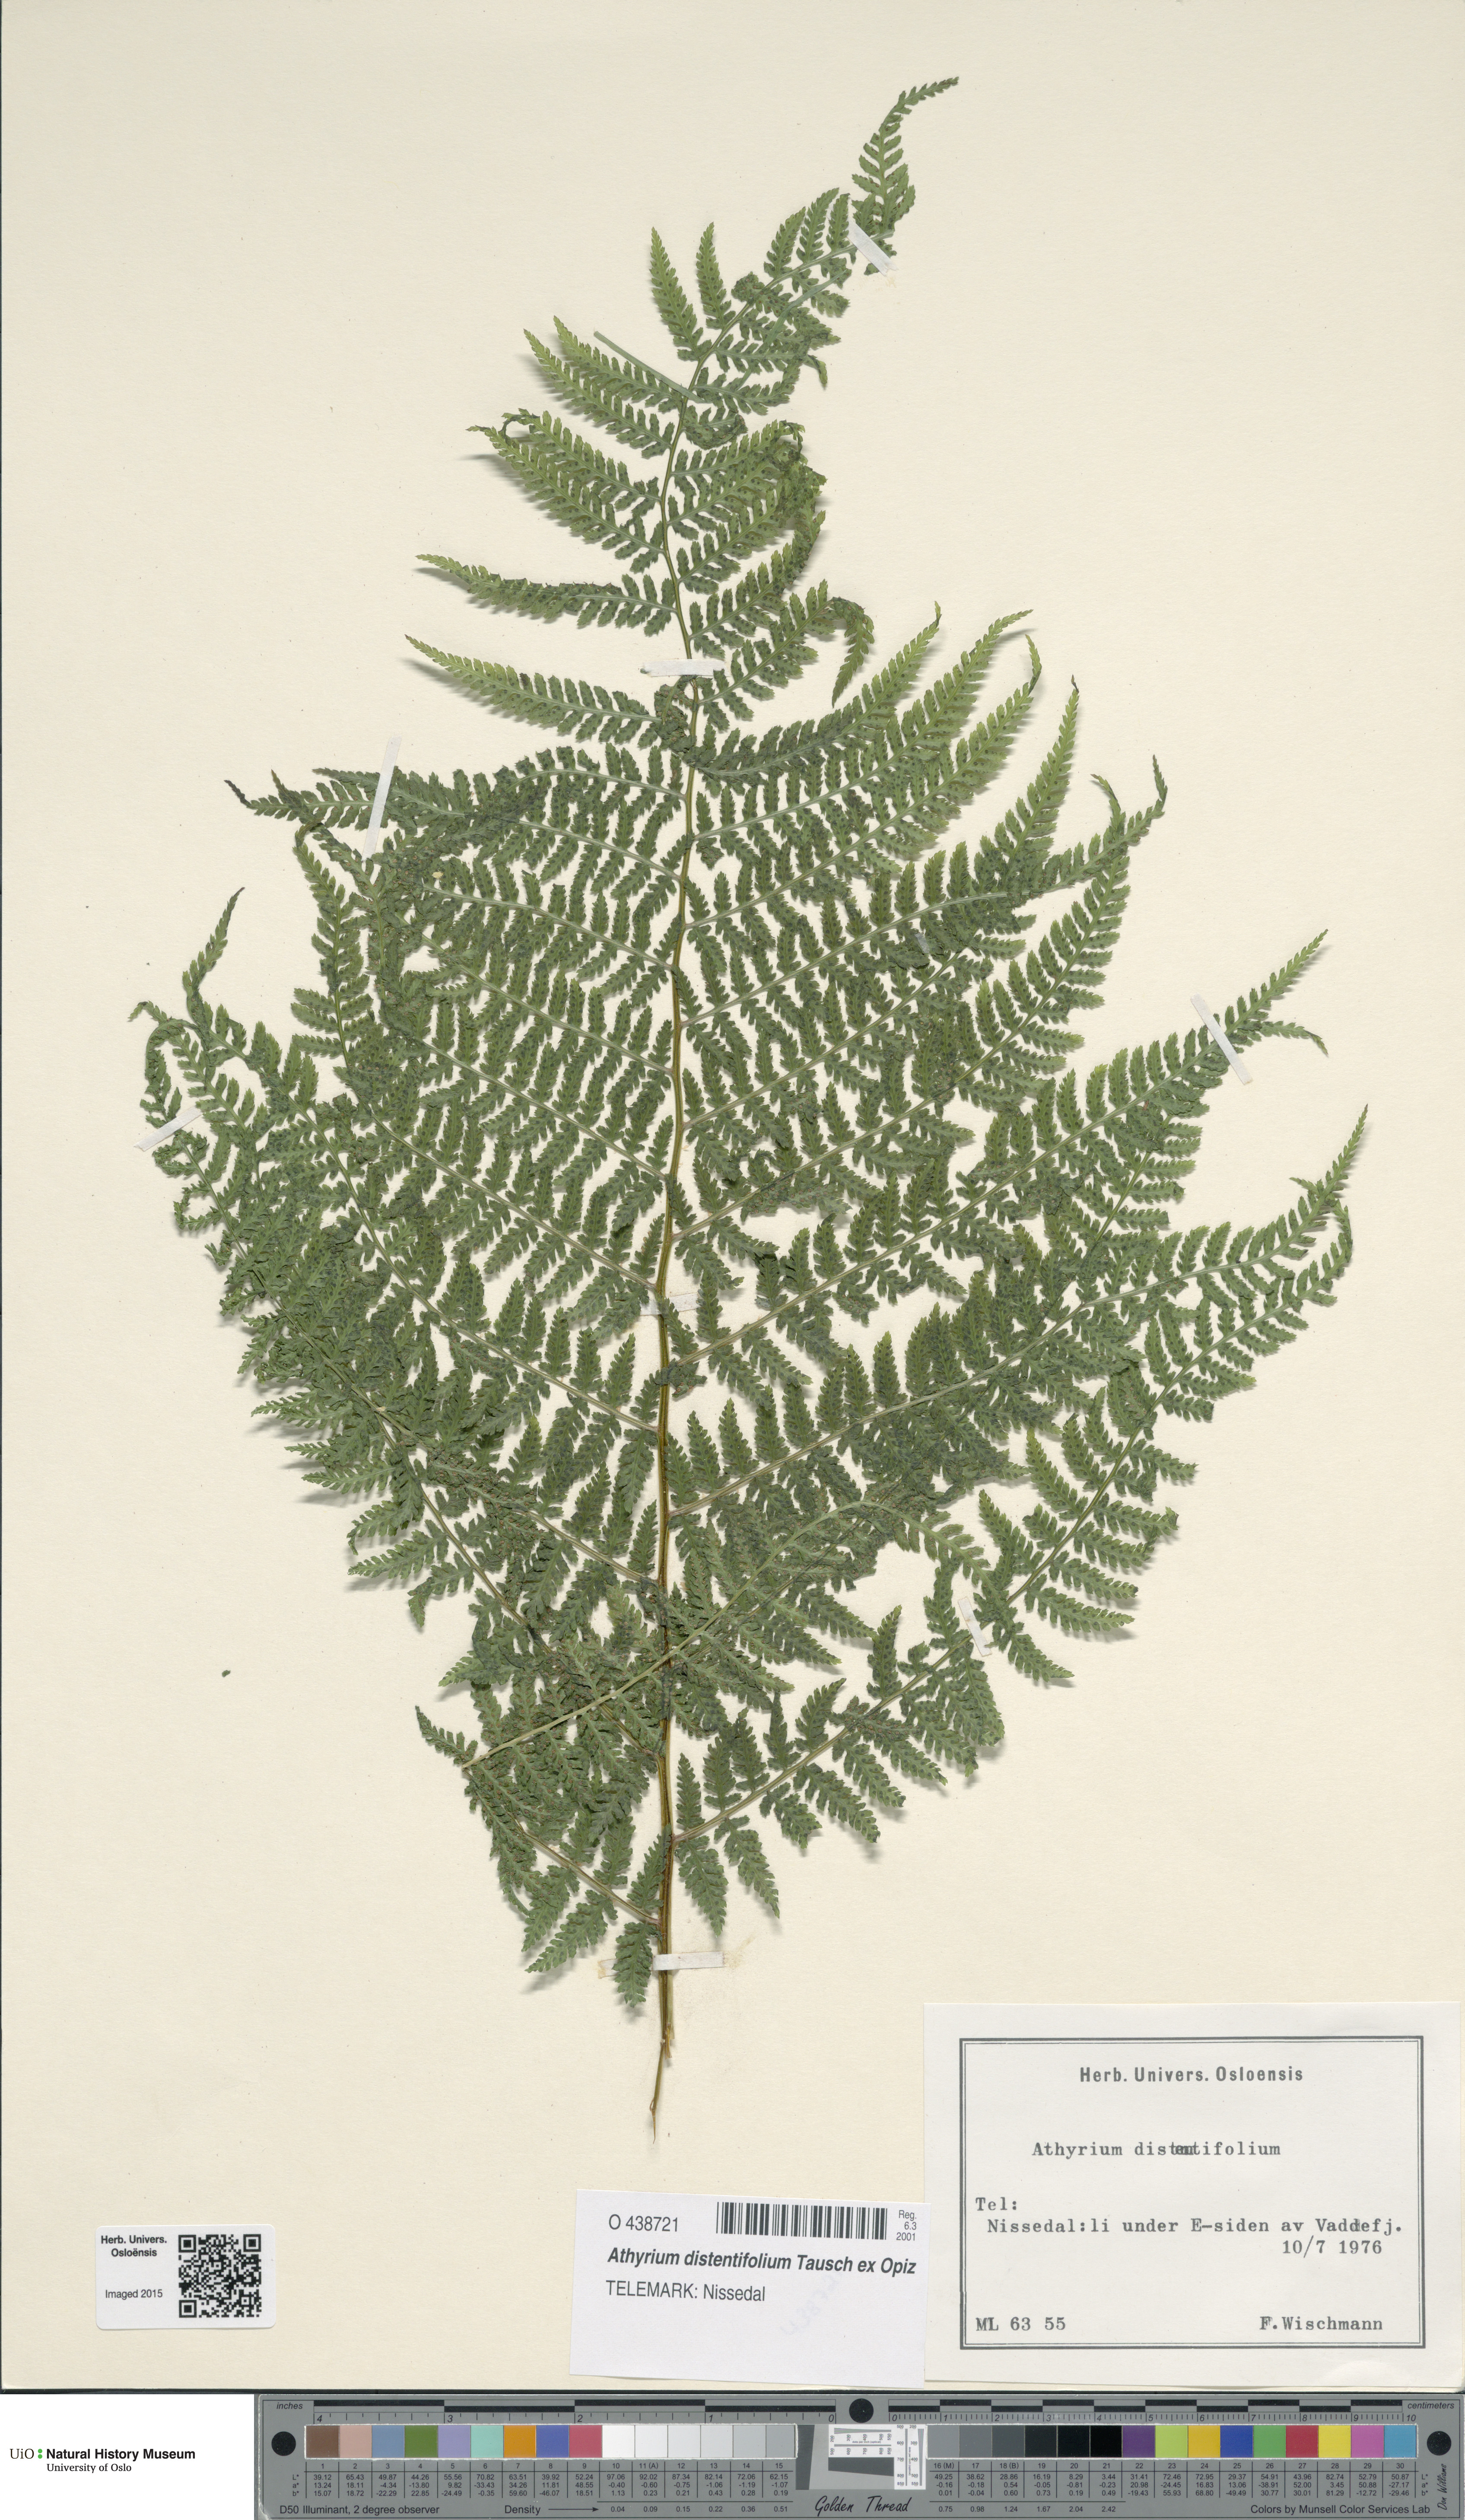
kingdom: Plantae
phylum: Tracheophyta
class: Polypodiopsida
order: Polypodiales
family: Athyriaceae
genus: Pseudathyrium
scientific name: Pseudathyrium alpestre
